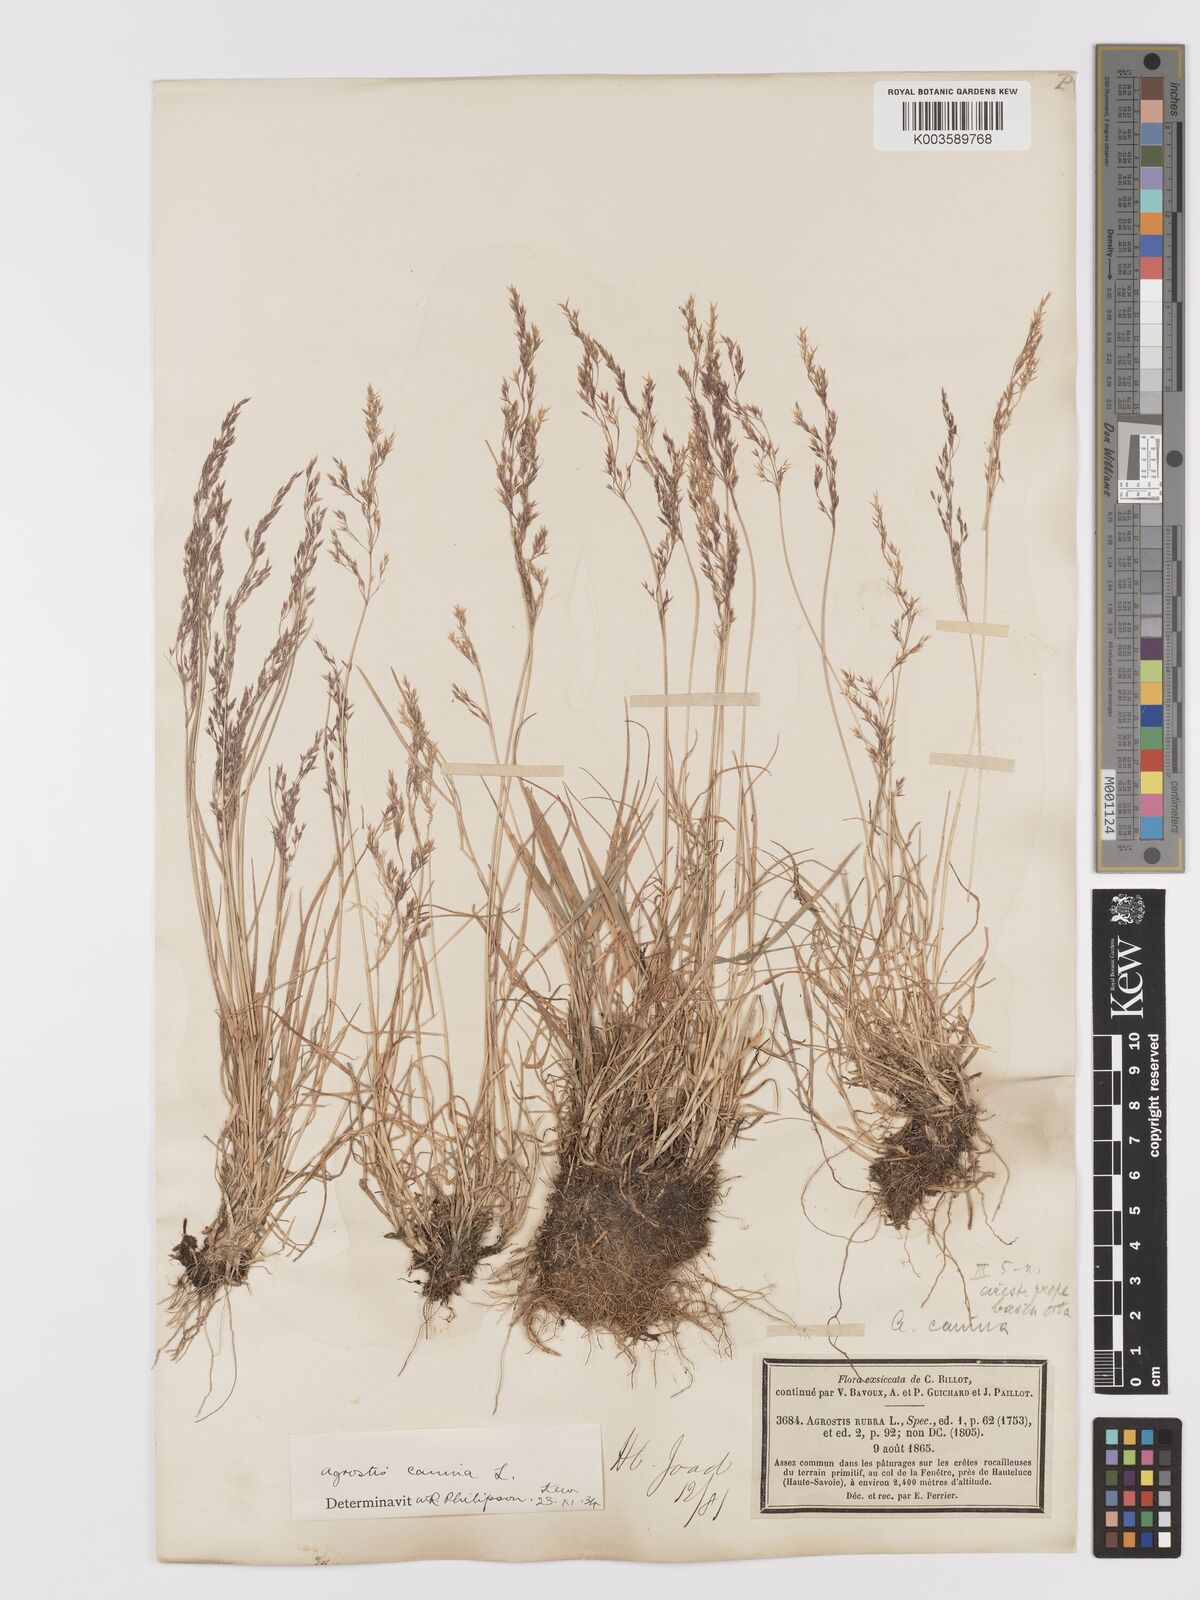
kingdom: Plantae
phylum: Tracheophyta
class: Liliopsida
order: Poales
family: Poaceae
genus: Agrostis
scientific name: Agrostis
